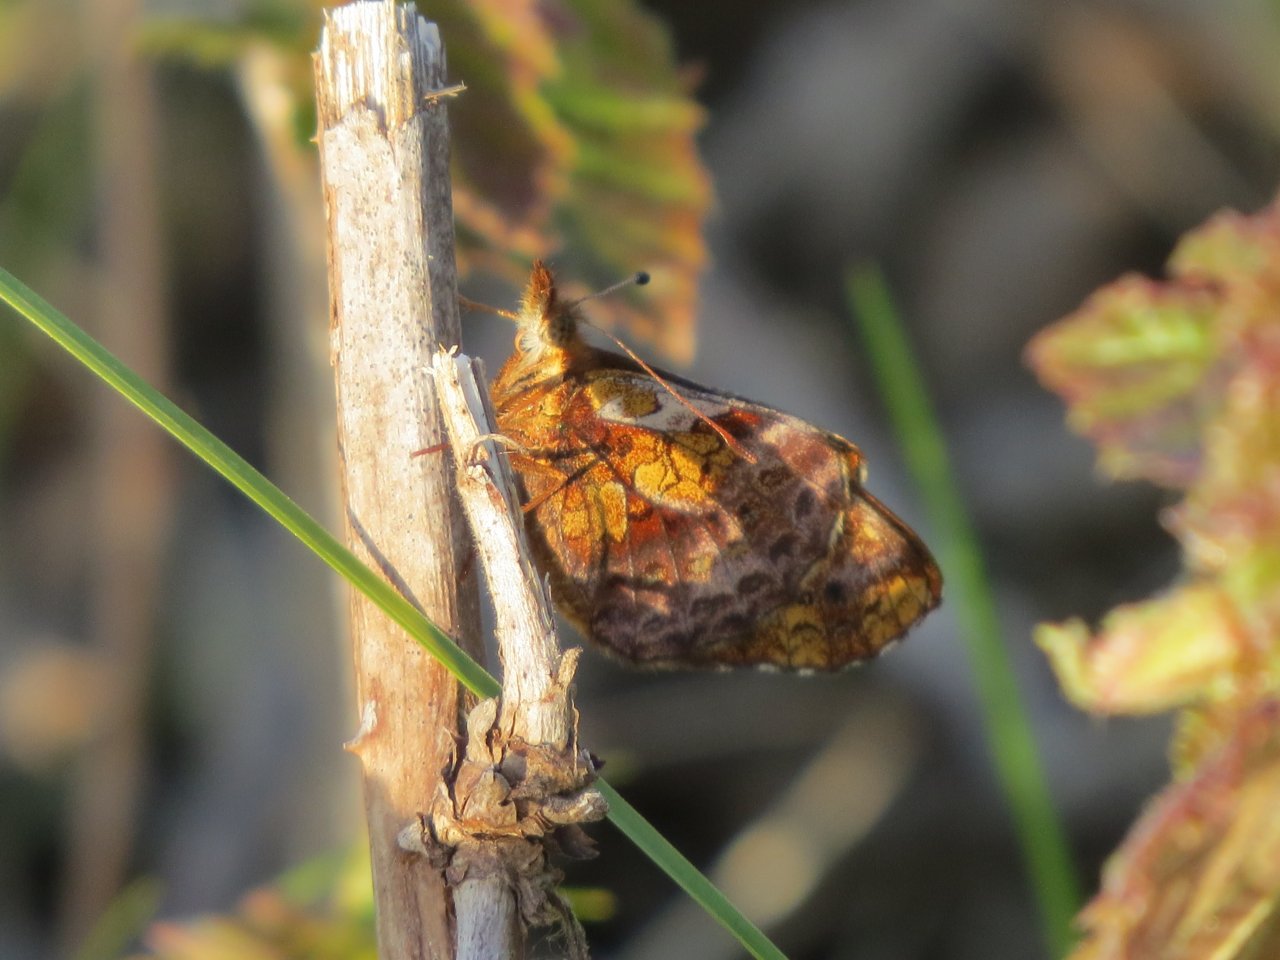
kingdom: Animalia
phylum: Arthropoda
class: Insecta
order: Lepidoptera
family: Nymphalidae
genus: Clossiana
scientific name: Clossiana toddi
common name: Meadow Fritillary
